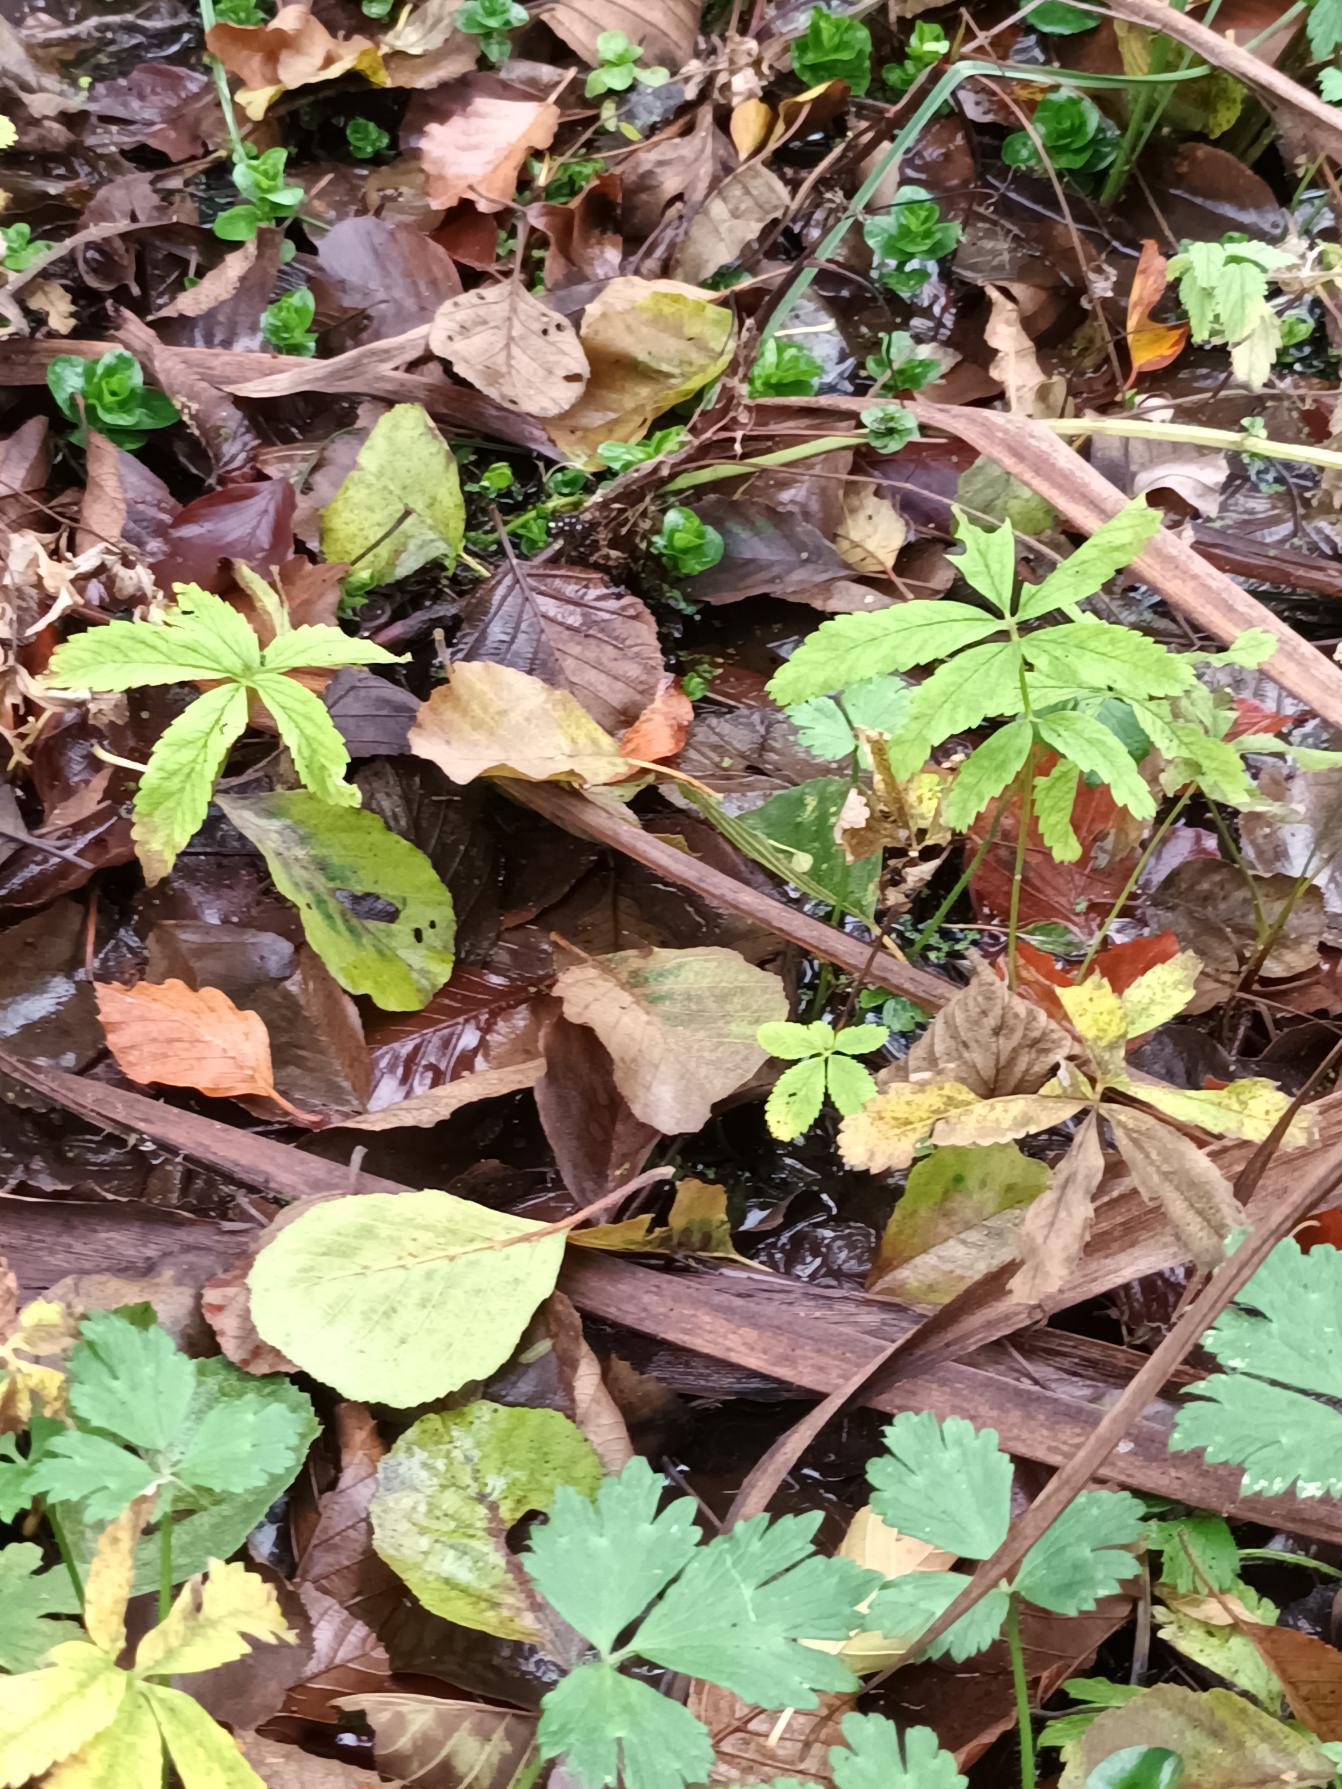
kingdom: Plantae
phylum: Tracheophyta
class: Magnoliopsida
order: Rosales
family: Rosaceae
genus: Comarum
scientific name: Comarum palustre
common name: Kragefod
